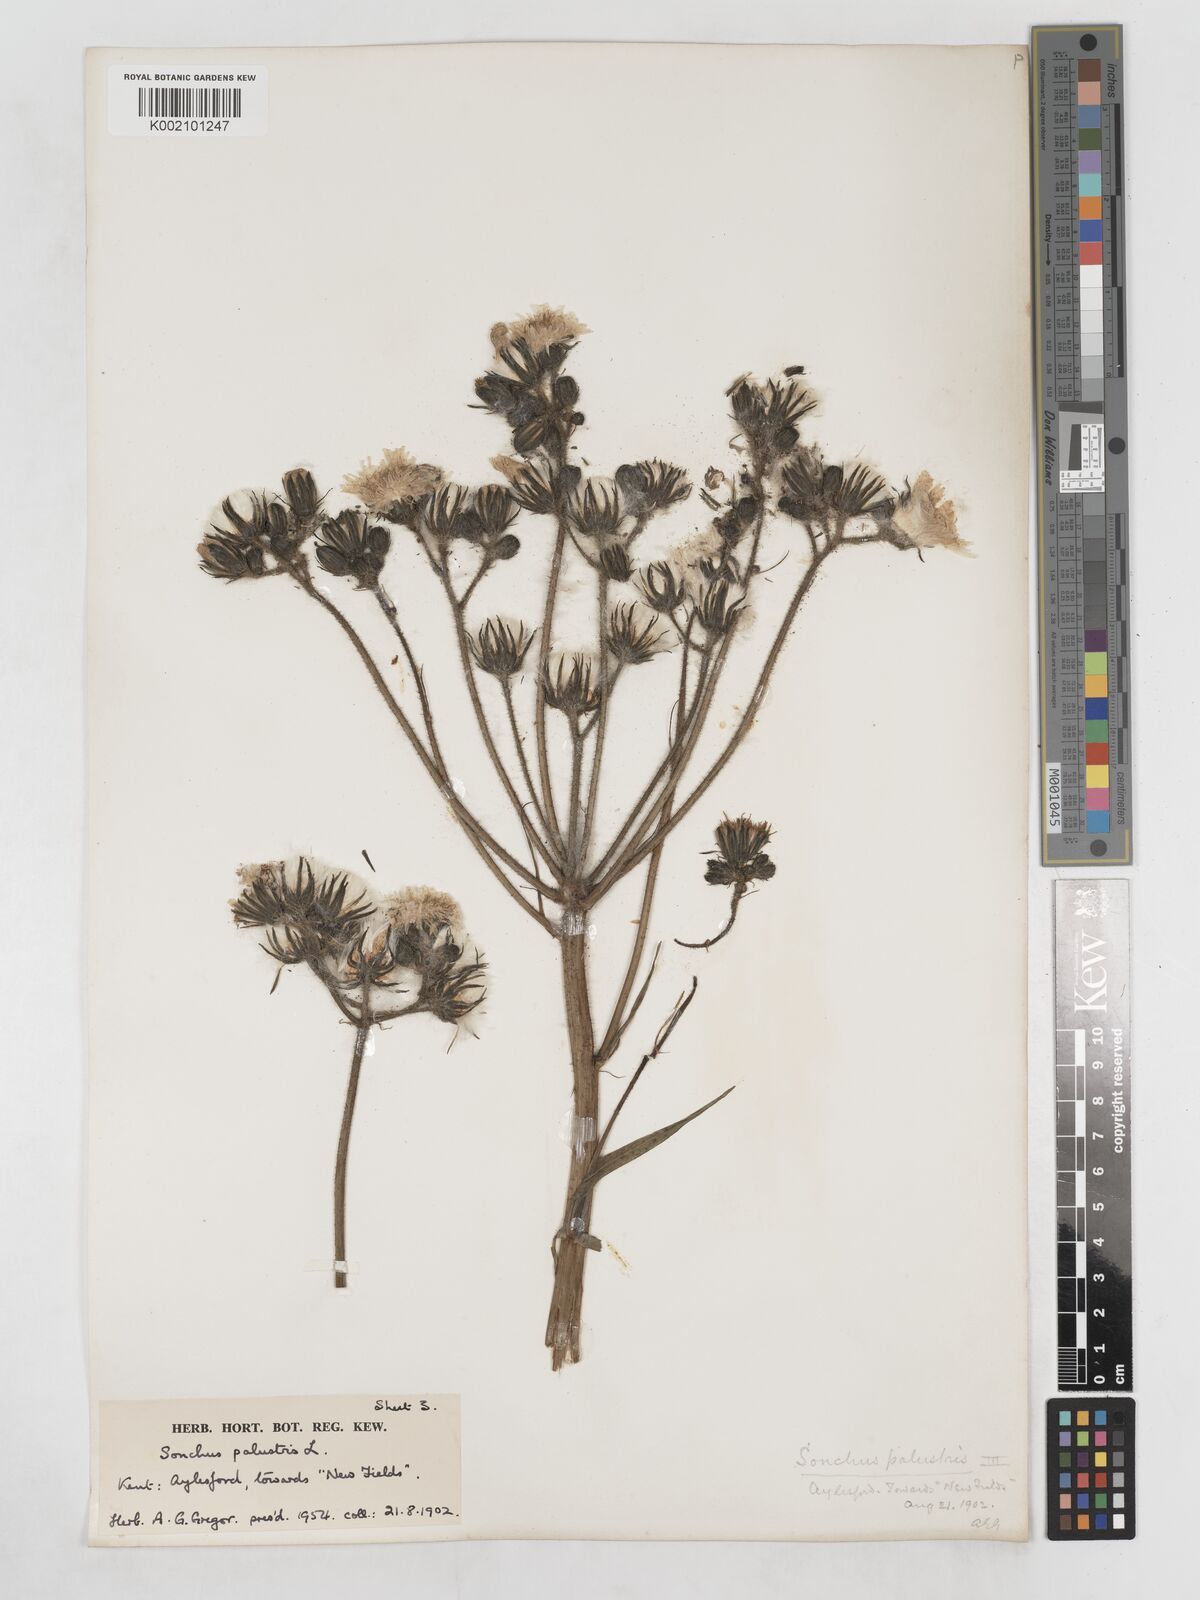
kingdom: Plantae
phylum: Tracheophyta
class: Magnoliopsida
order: Asterales
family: Asteraceae
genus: Sonchus
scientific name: Sonchus palustris
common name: Marsh sow-thistle
